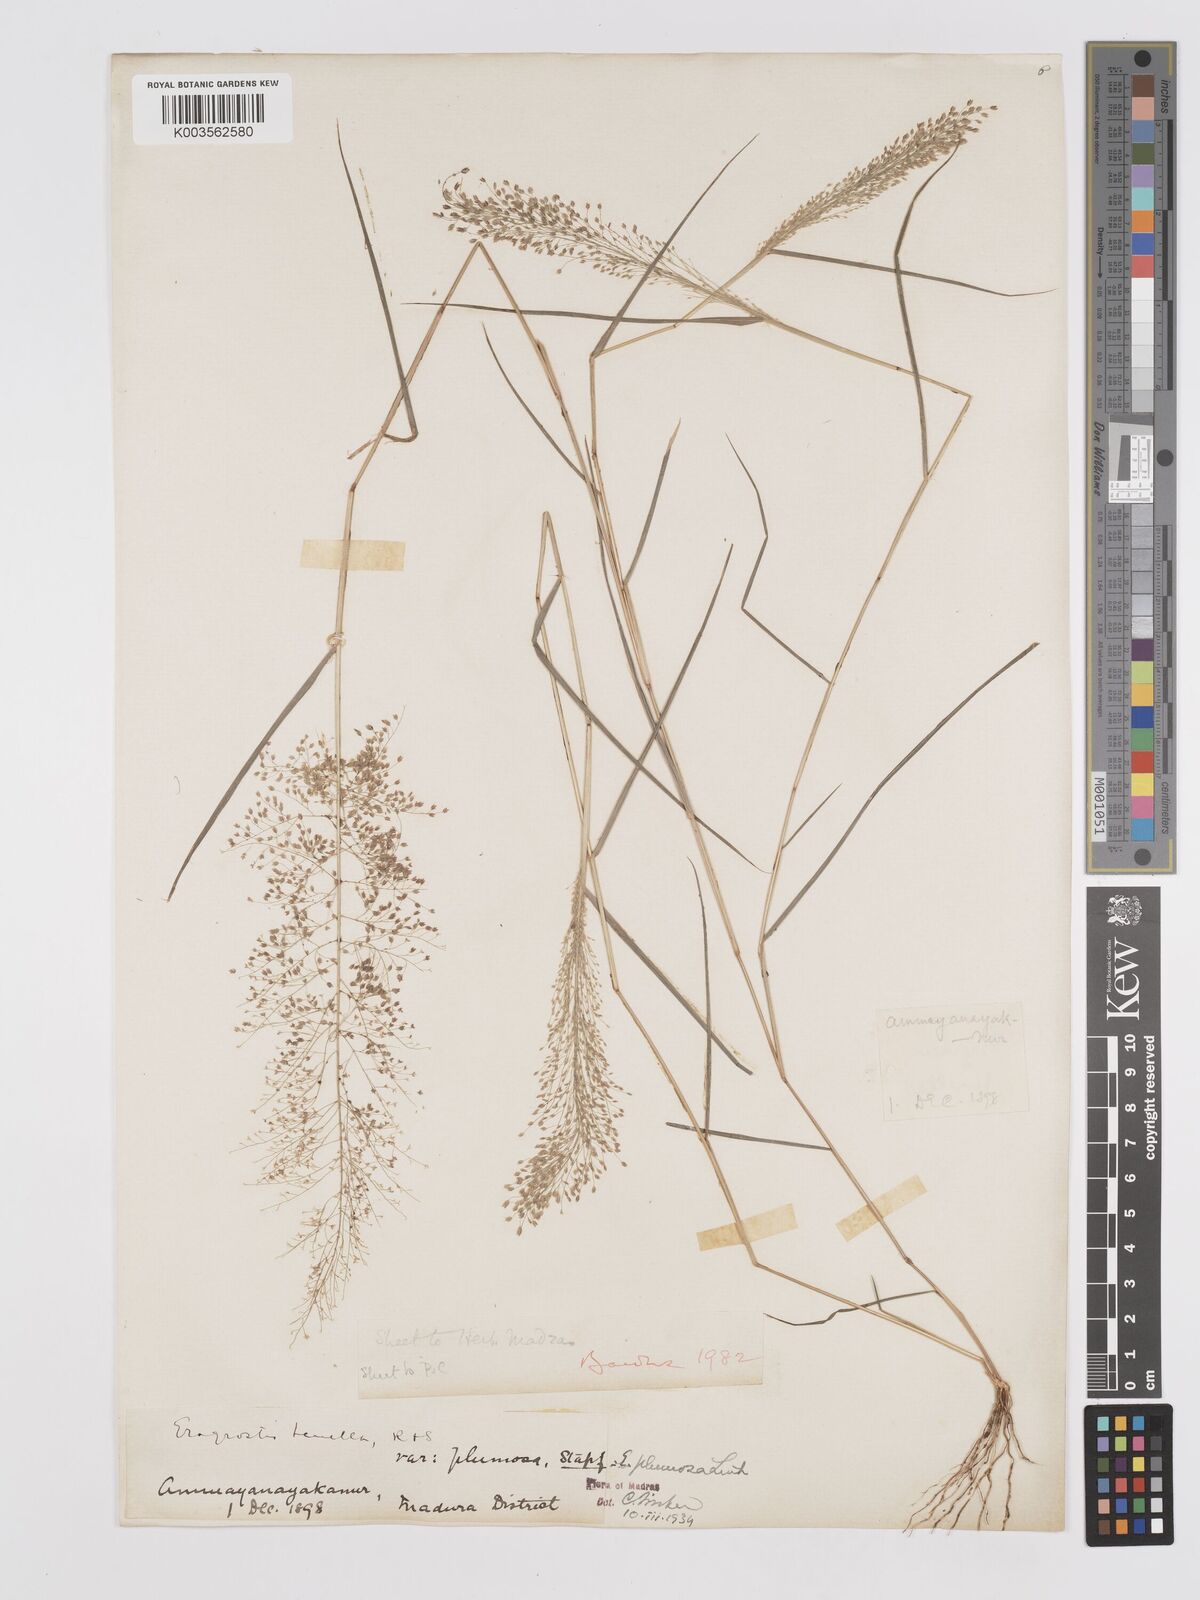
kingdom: Plantae
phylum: Tracheophyta
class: Liliopsida
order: Poales
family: Poaceae
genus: Eragrostis
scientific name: Eragrostis tenella
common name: Japanese lovegrass
